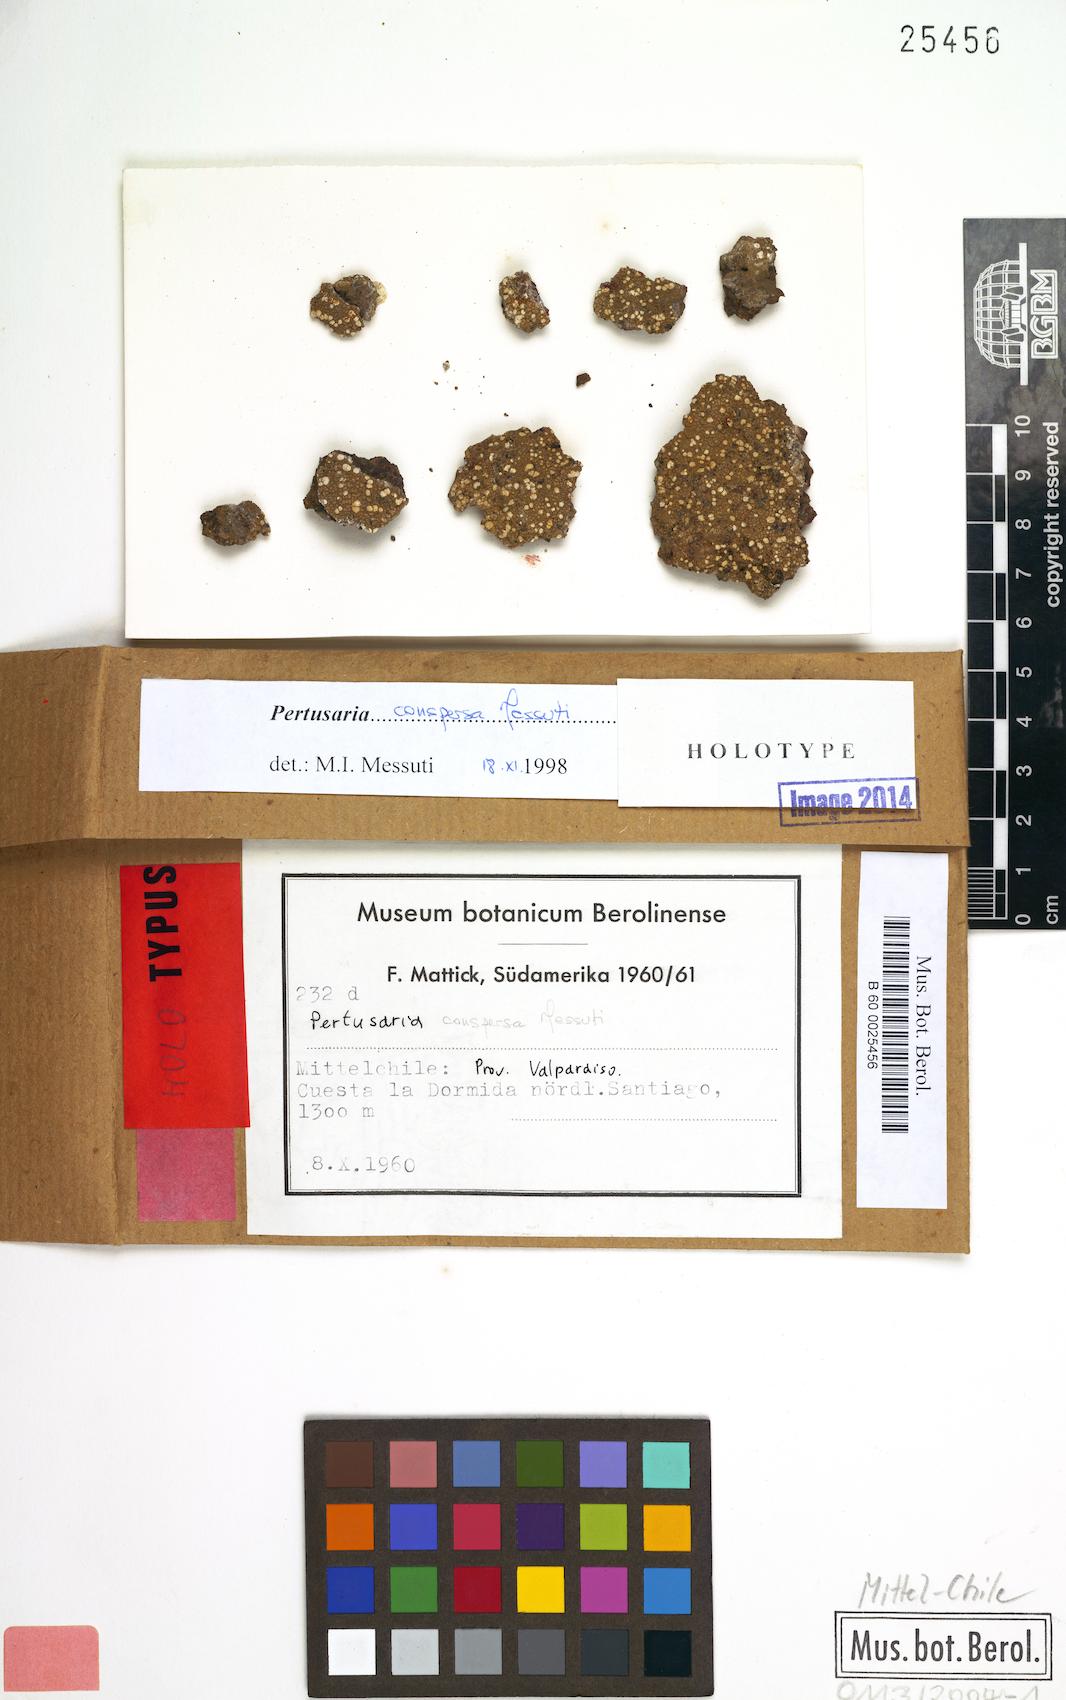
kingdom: Fungi
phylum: Ascomycota
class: Lecanoromycetes
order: Pertusariales
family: Pertusariaceae
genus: Pertusaria
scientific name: Pertusaria conspersa
